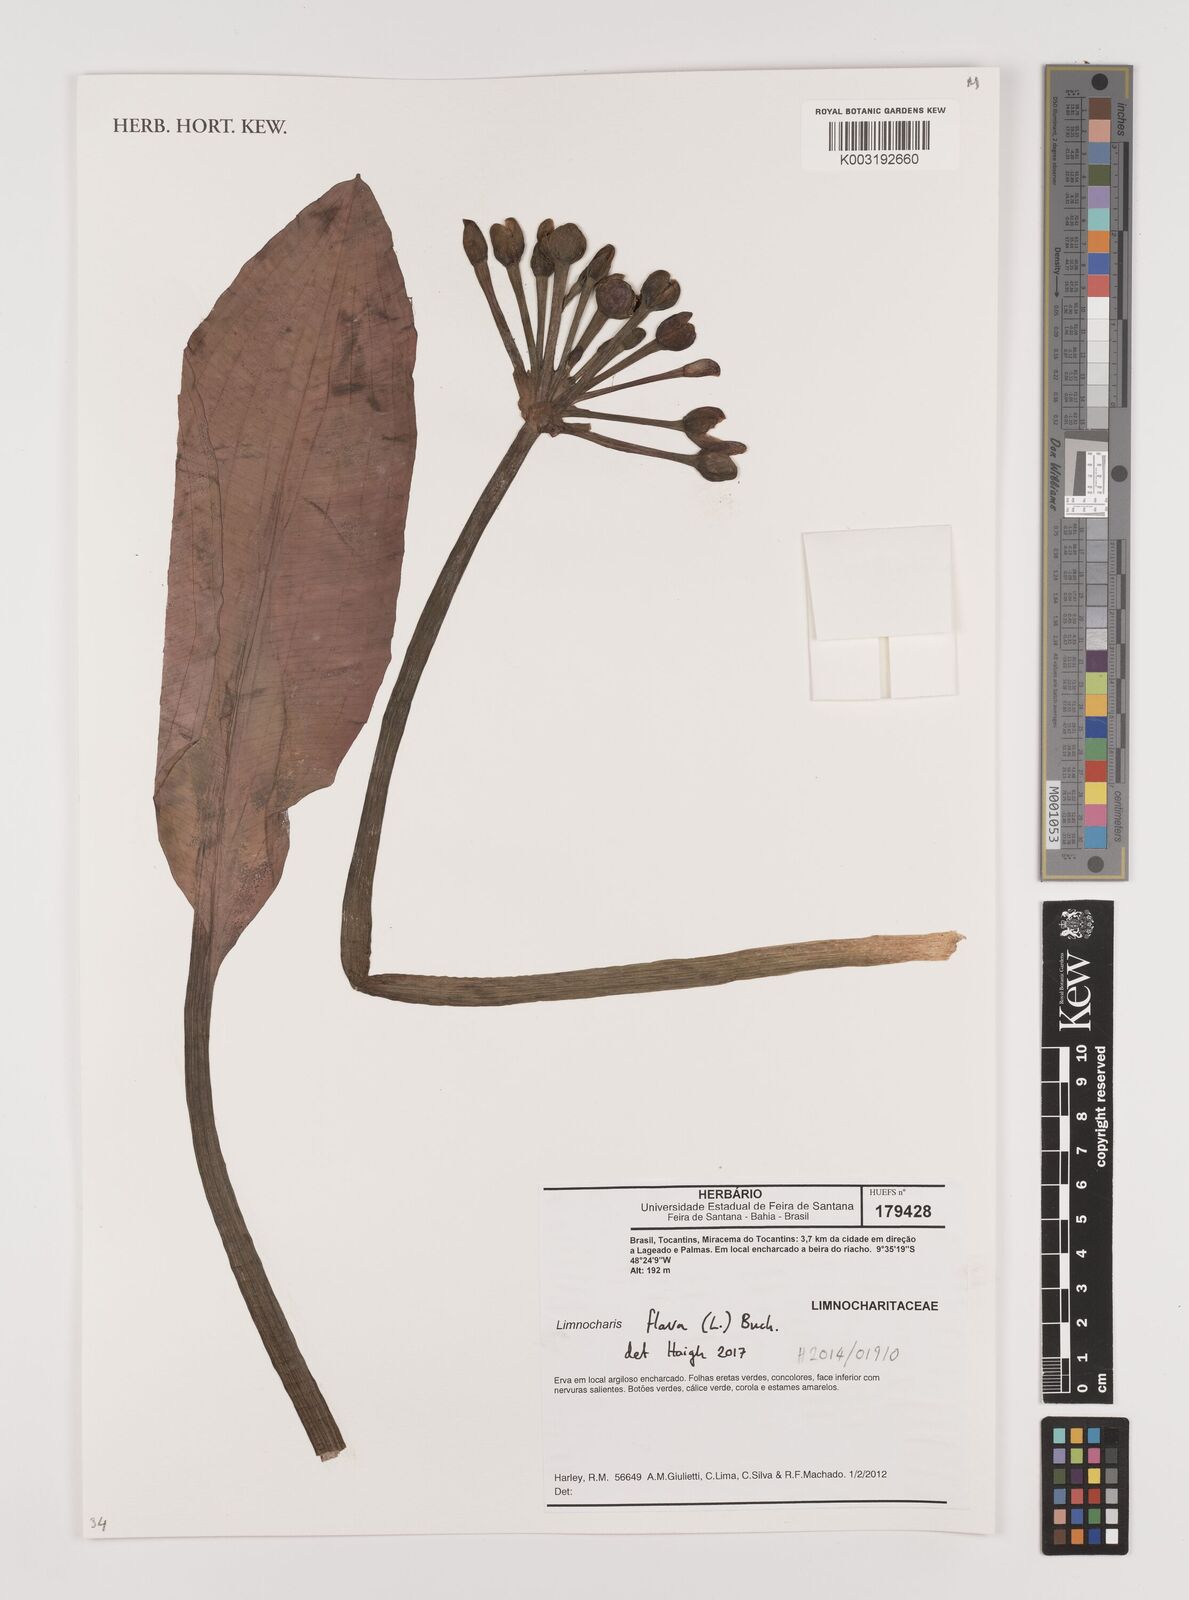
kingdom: Plantae
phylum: Tracheophyta
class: Liliopsida
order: Alismatales
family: Alismataceae
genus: Limnocharis
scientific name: Limnocharis flava
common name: Sawah-flower-rush
